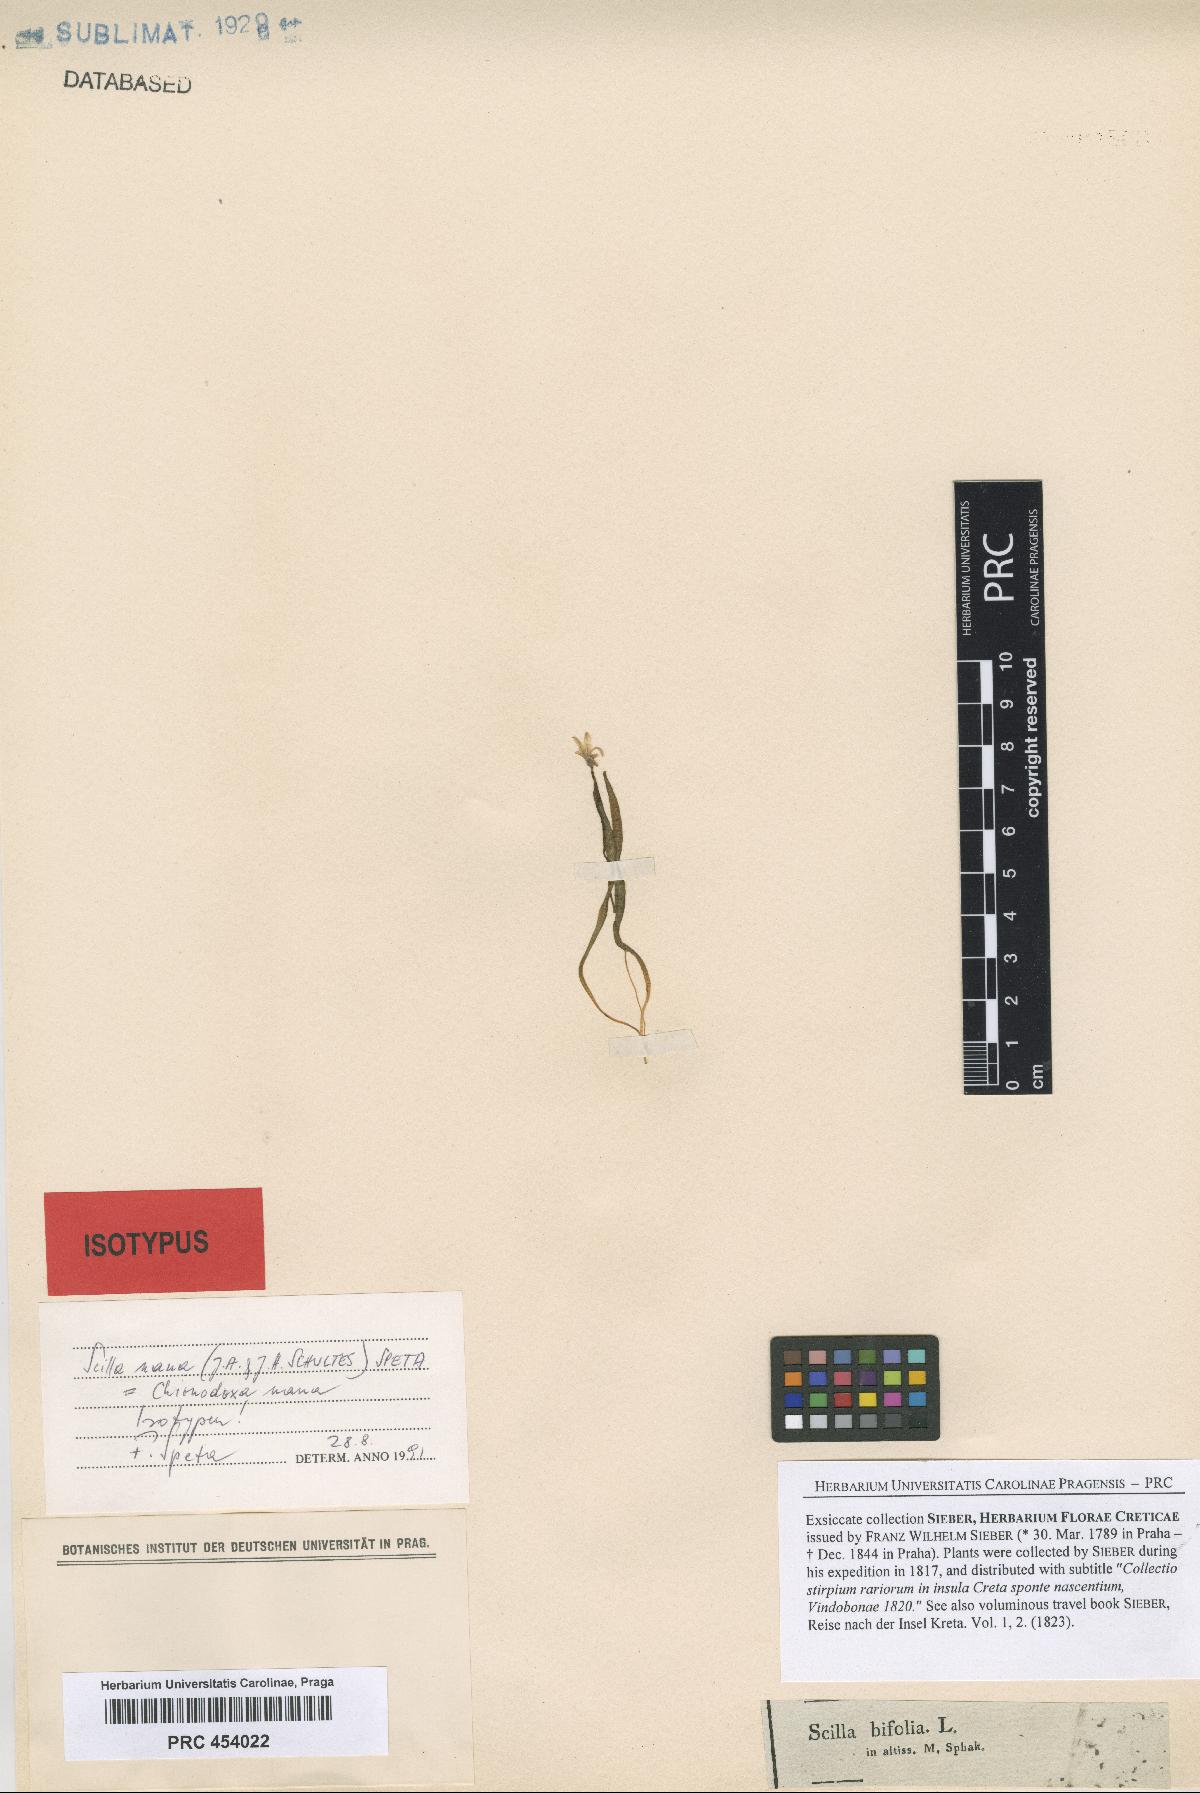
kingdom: Plantae
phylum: Tracheophyta
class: Liliopsida
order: Asparagales
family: Asparagaceae
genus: Scilla
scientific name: Scilla nana
